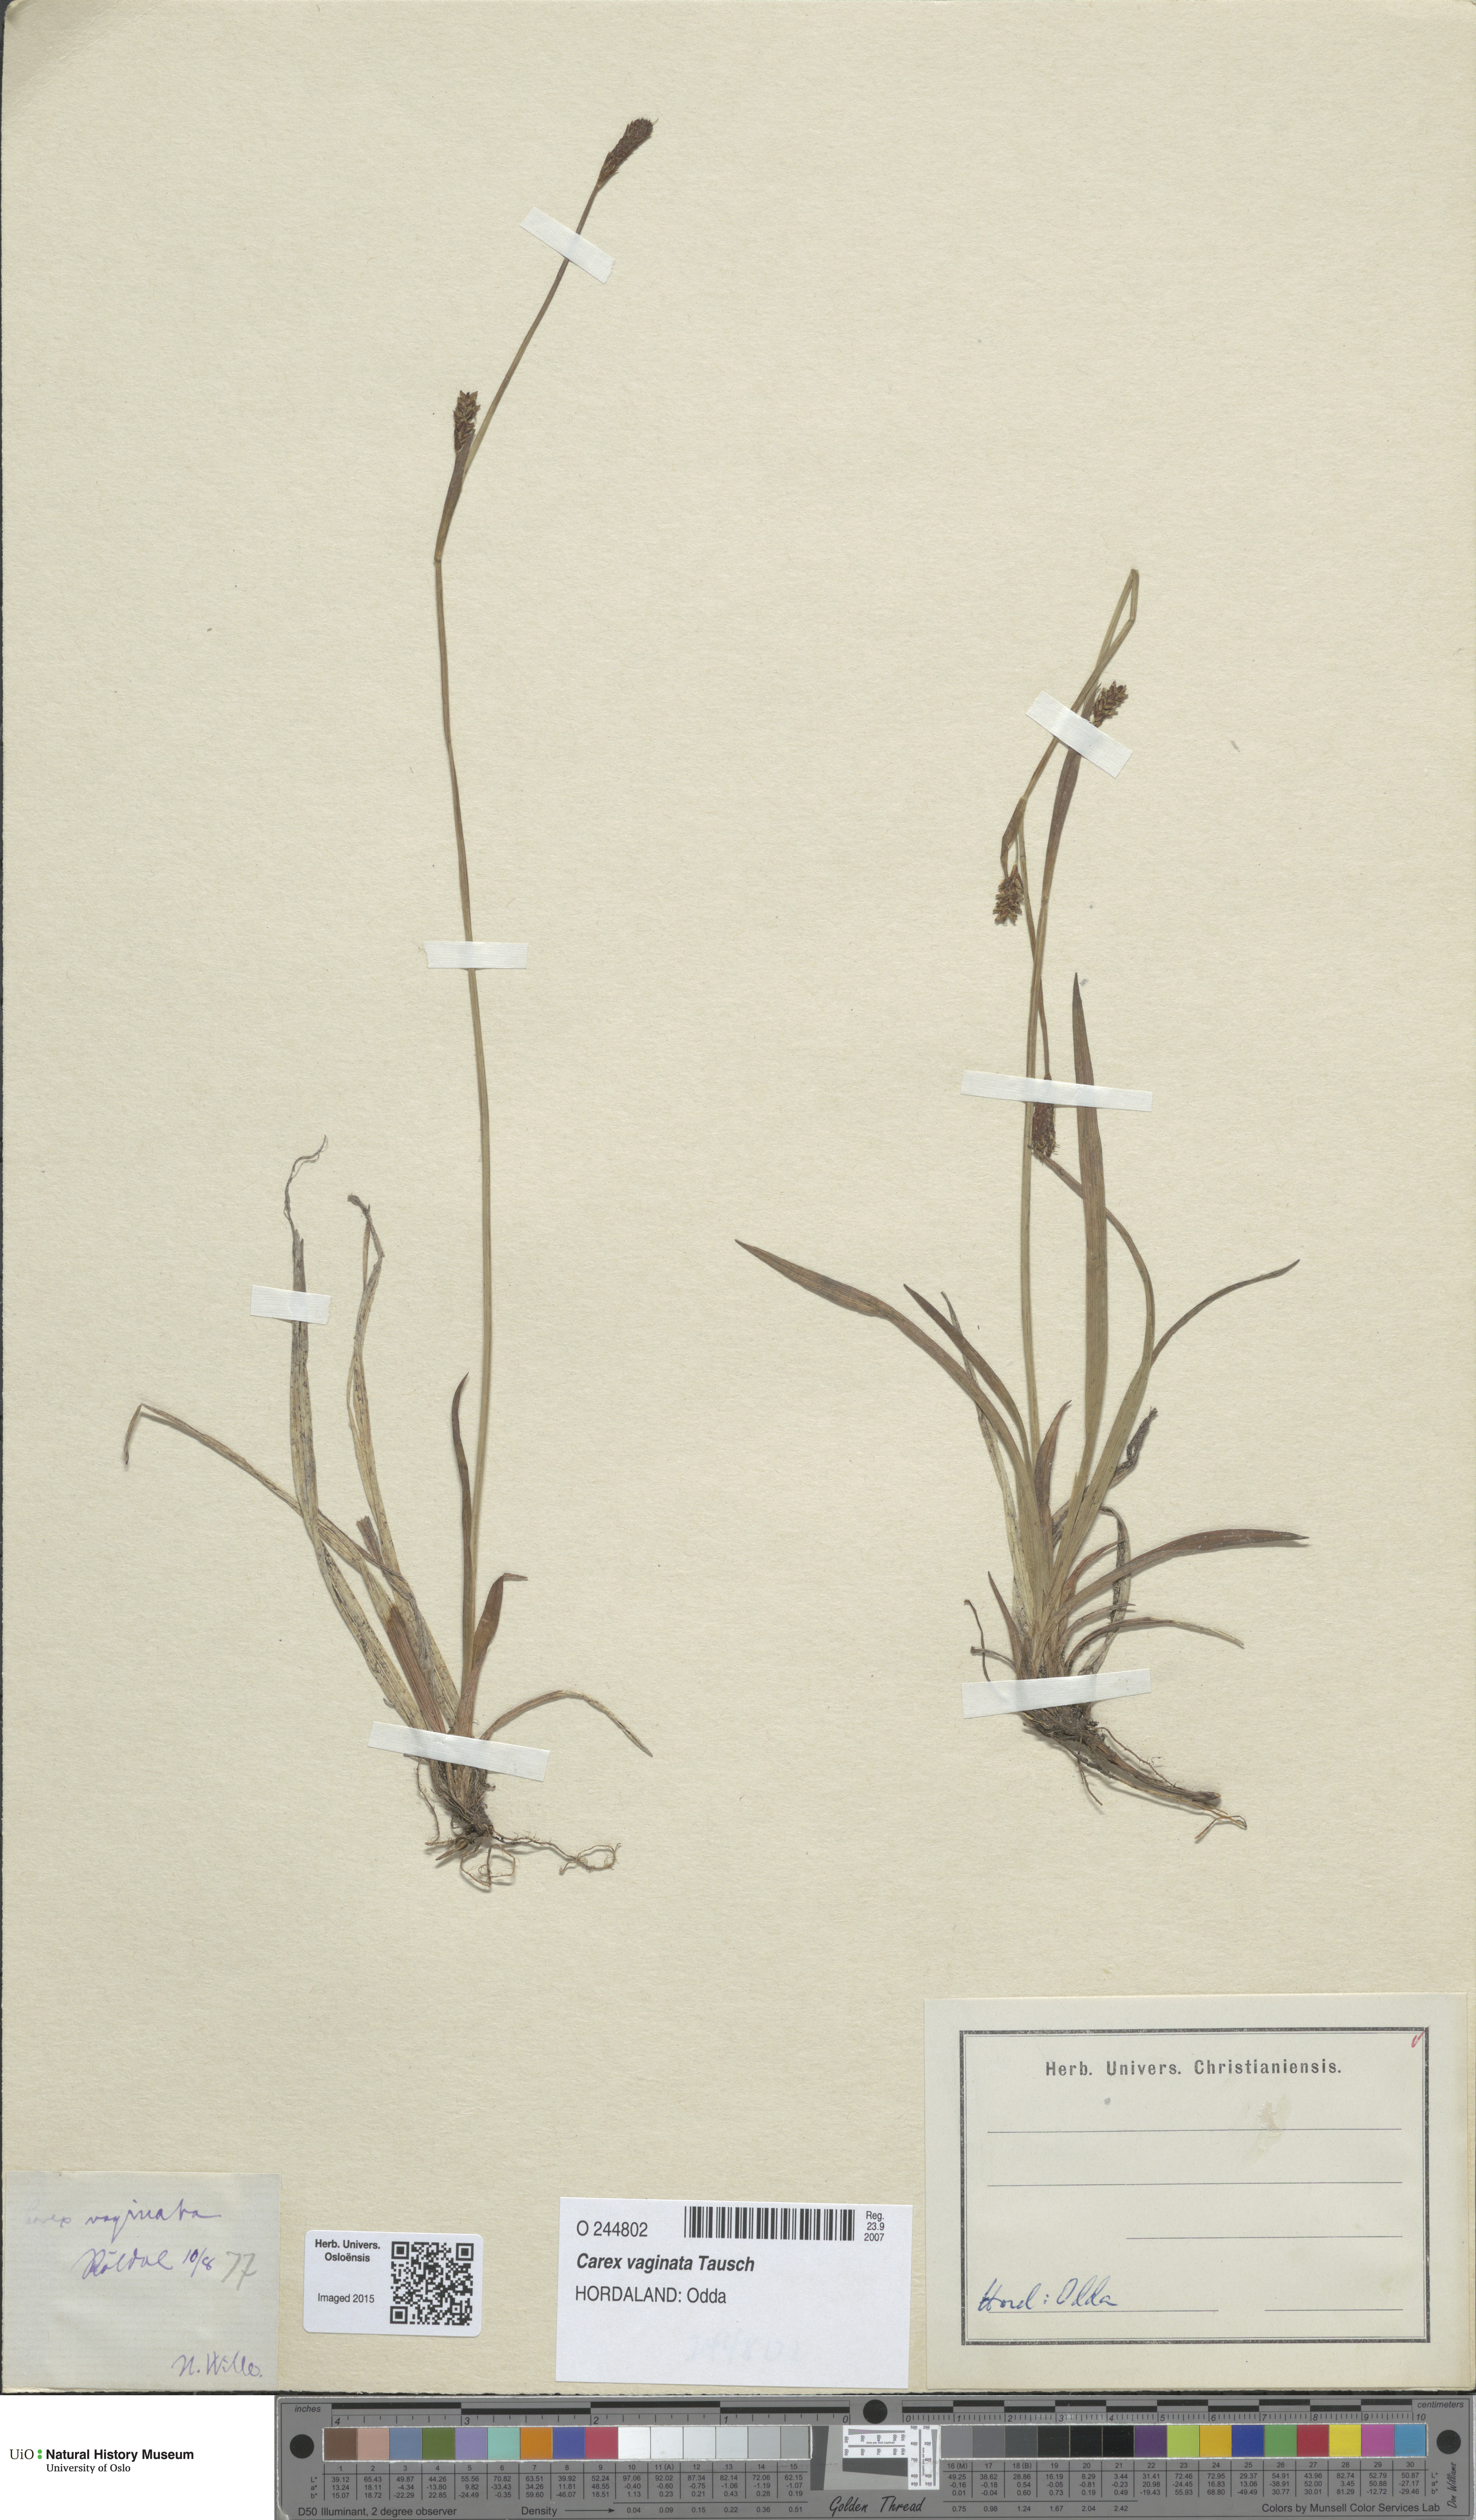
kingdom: Plantae
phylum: Tracheophyta
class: Liliopsida
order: Poales
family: Cyperaceae
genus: Carex
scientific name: Carex vaginata
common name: Sheathed sedge
